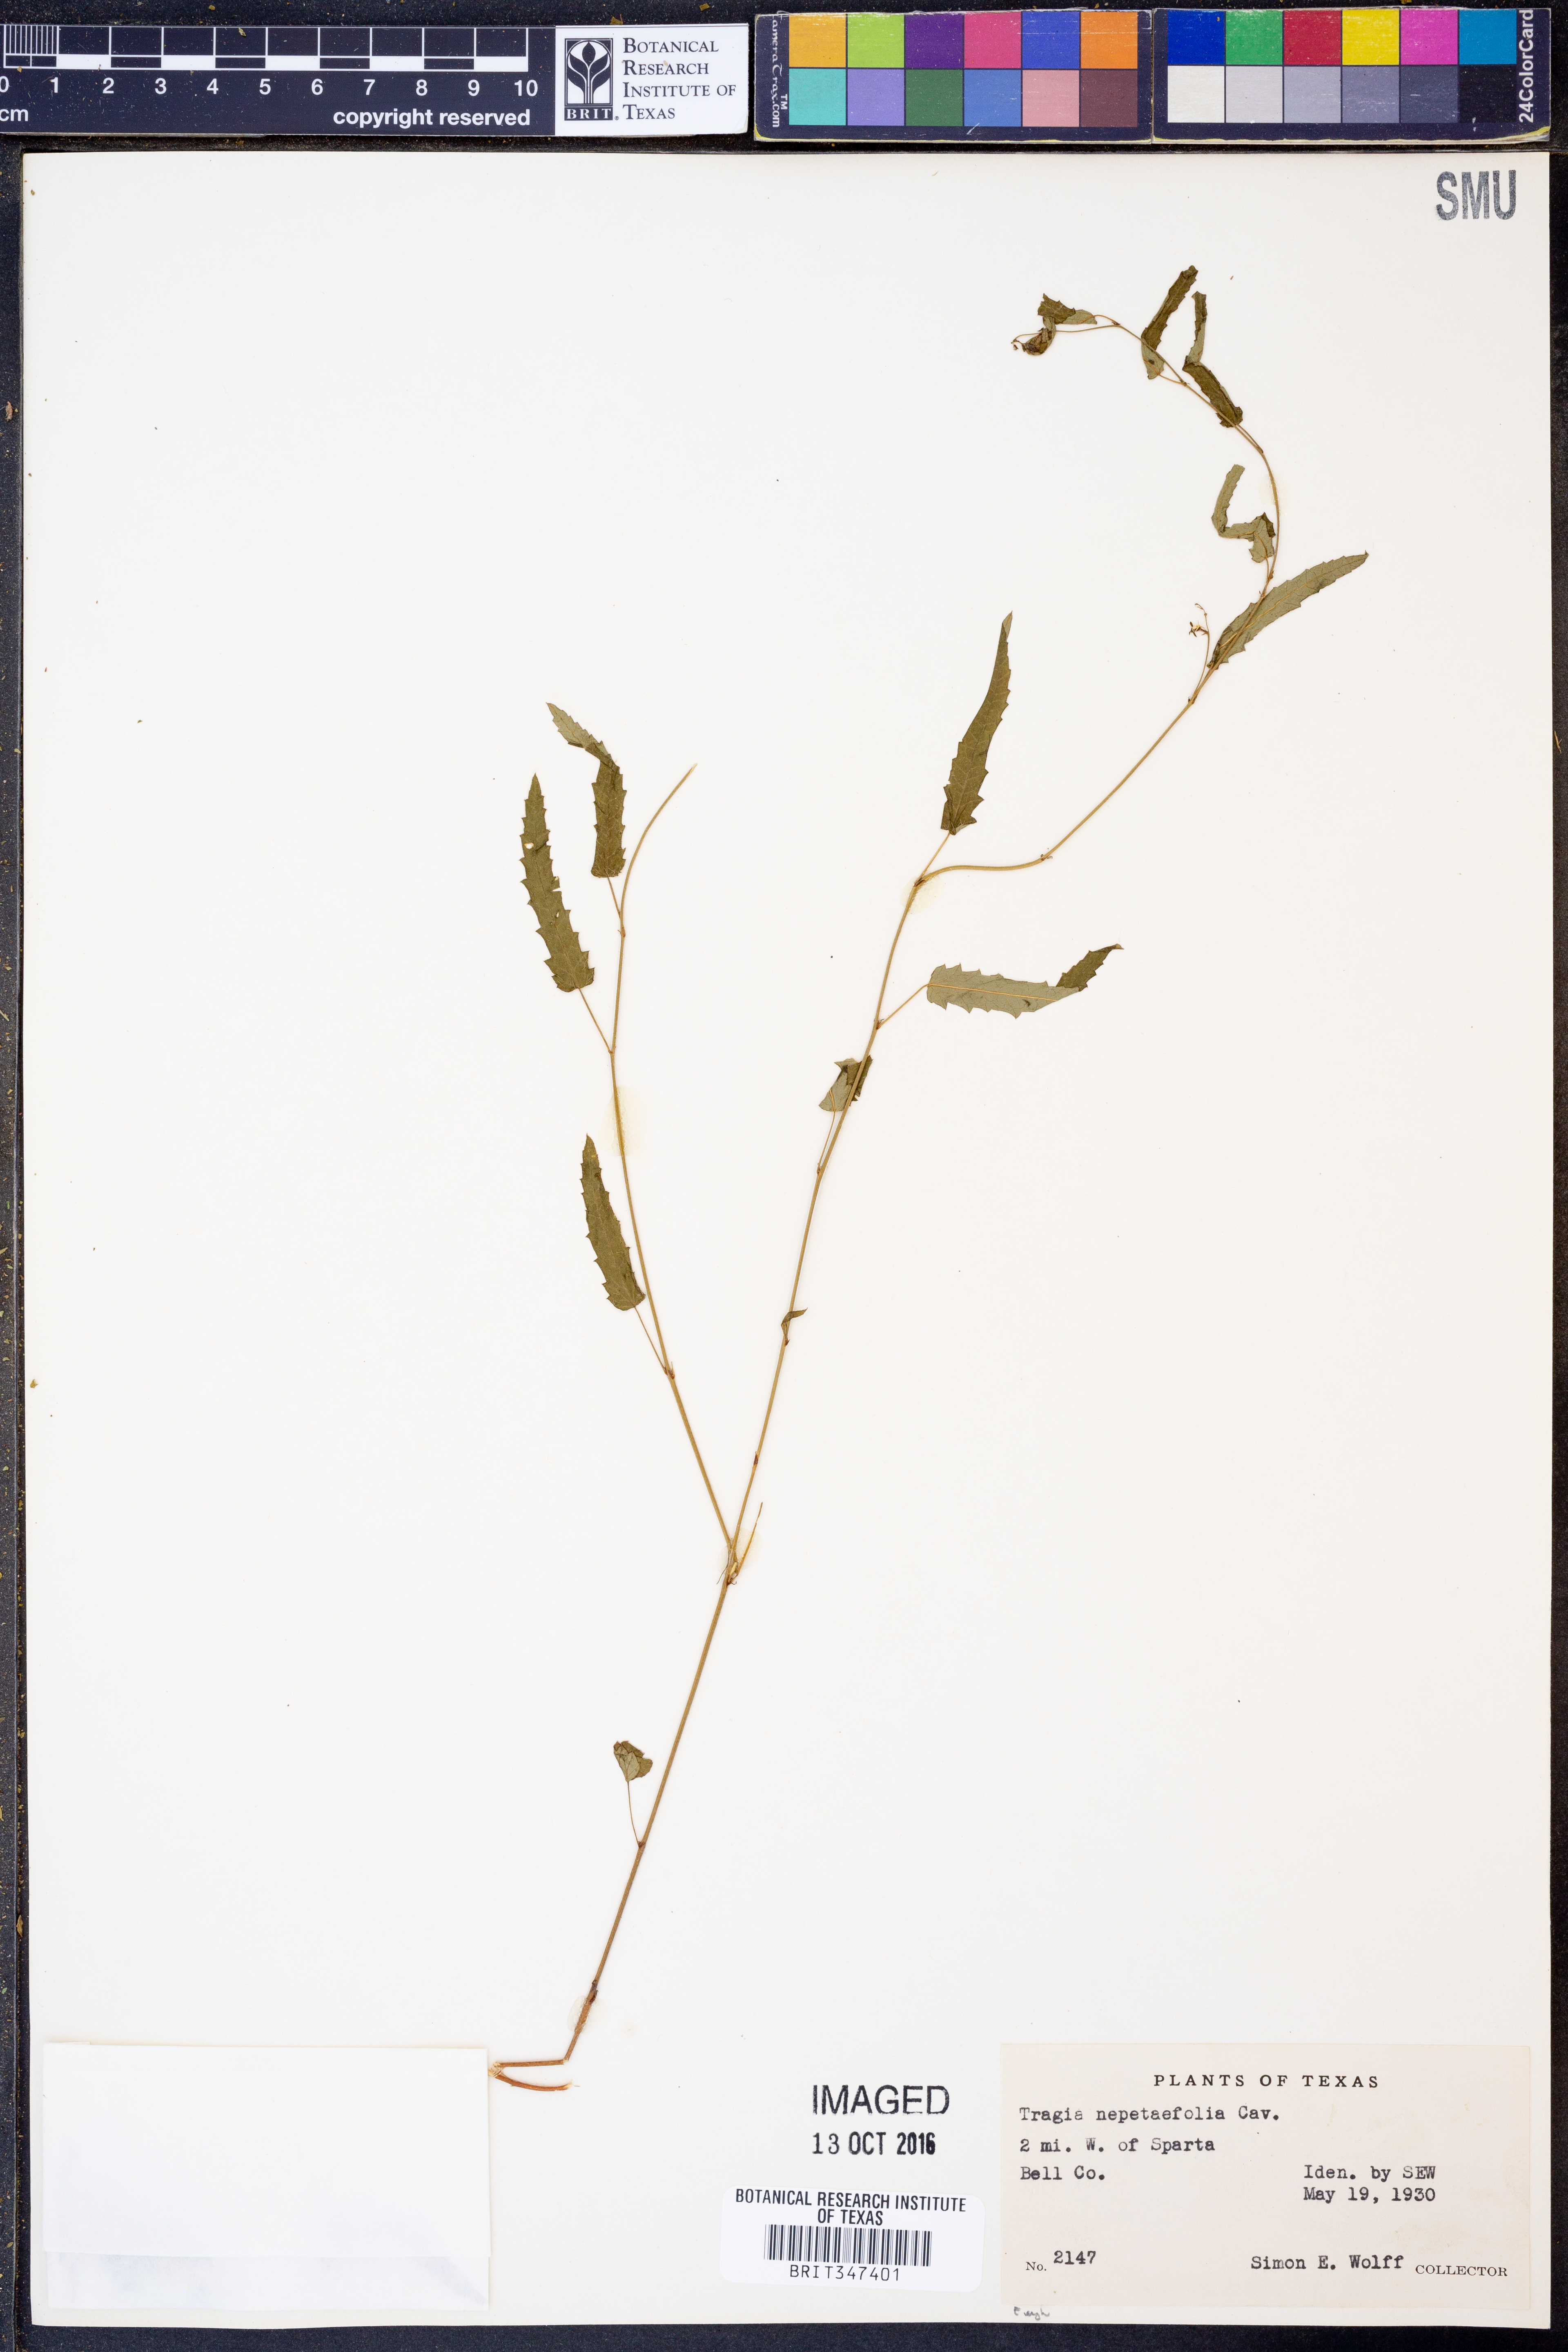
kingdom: Plantae
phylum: Tracheophyta
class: Magnoliopsida
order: Malpighiales
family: Euphorbiaceae
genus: Tragia
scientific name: Tragia bahiensis
